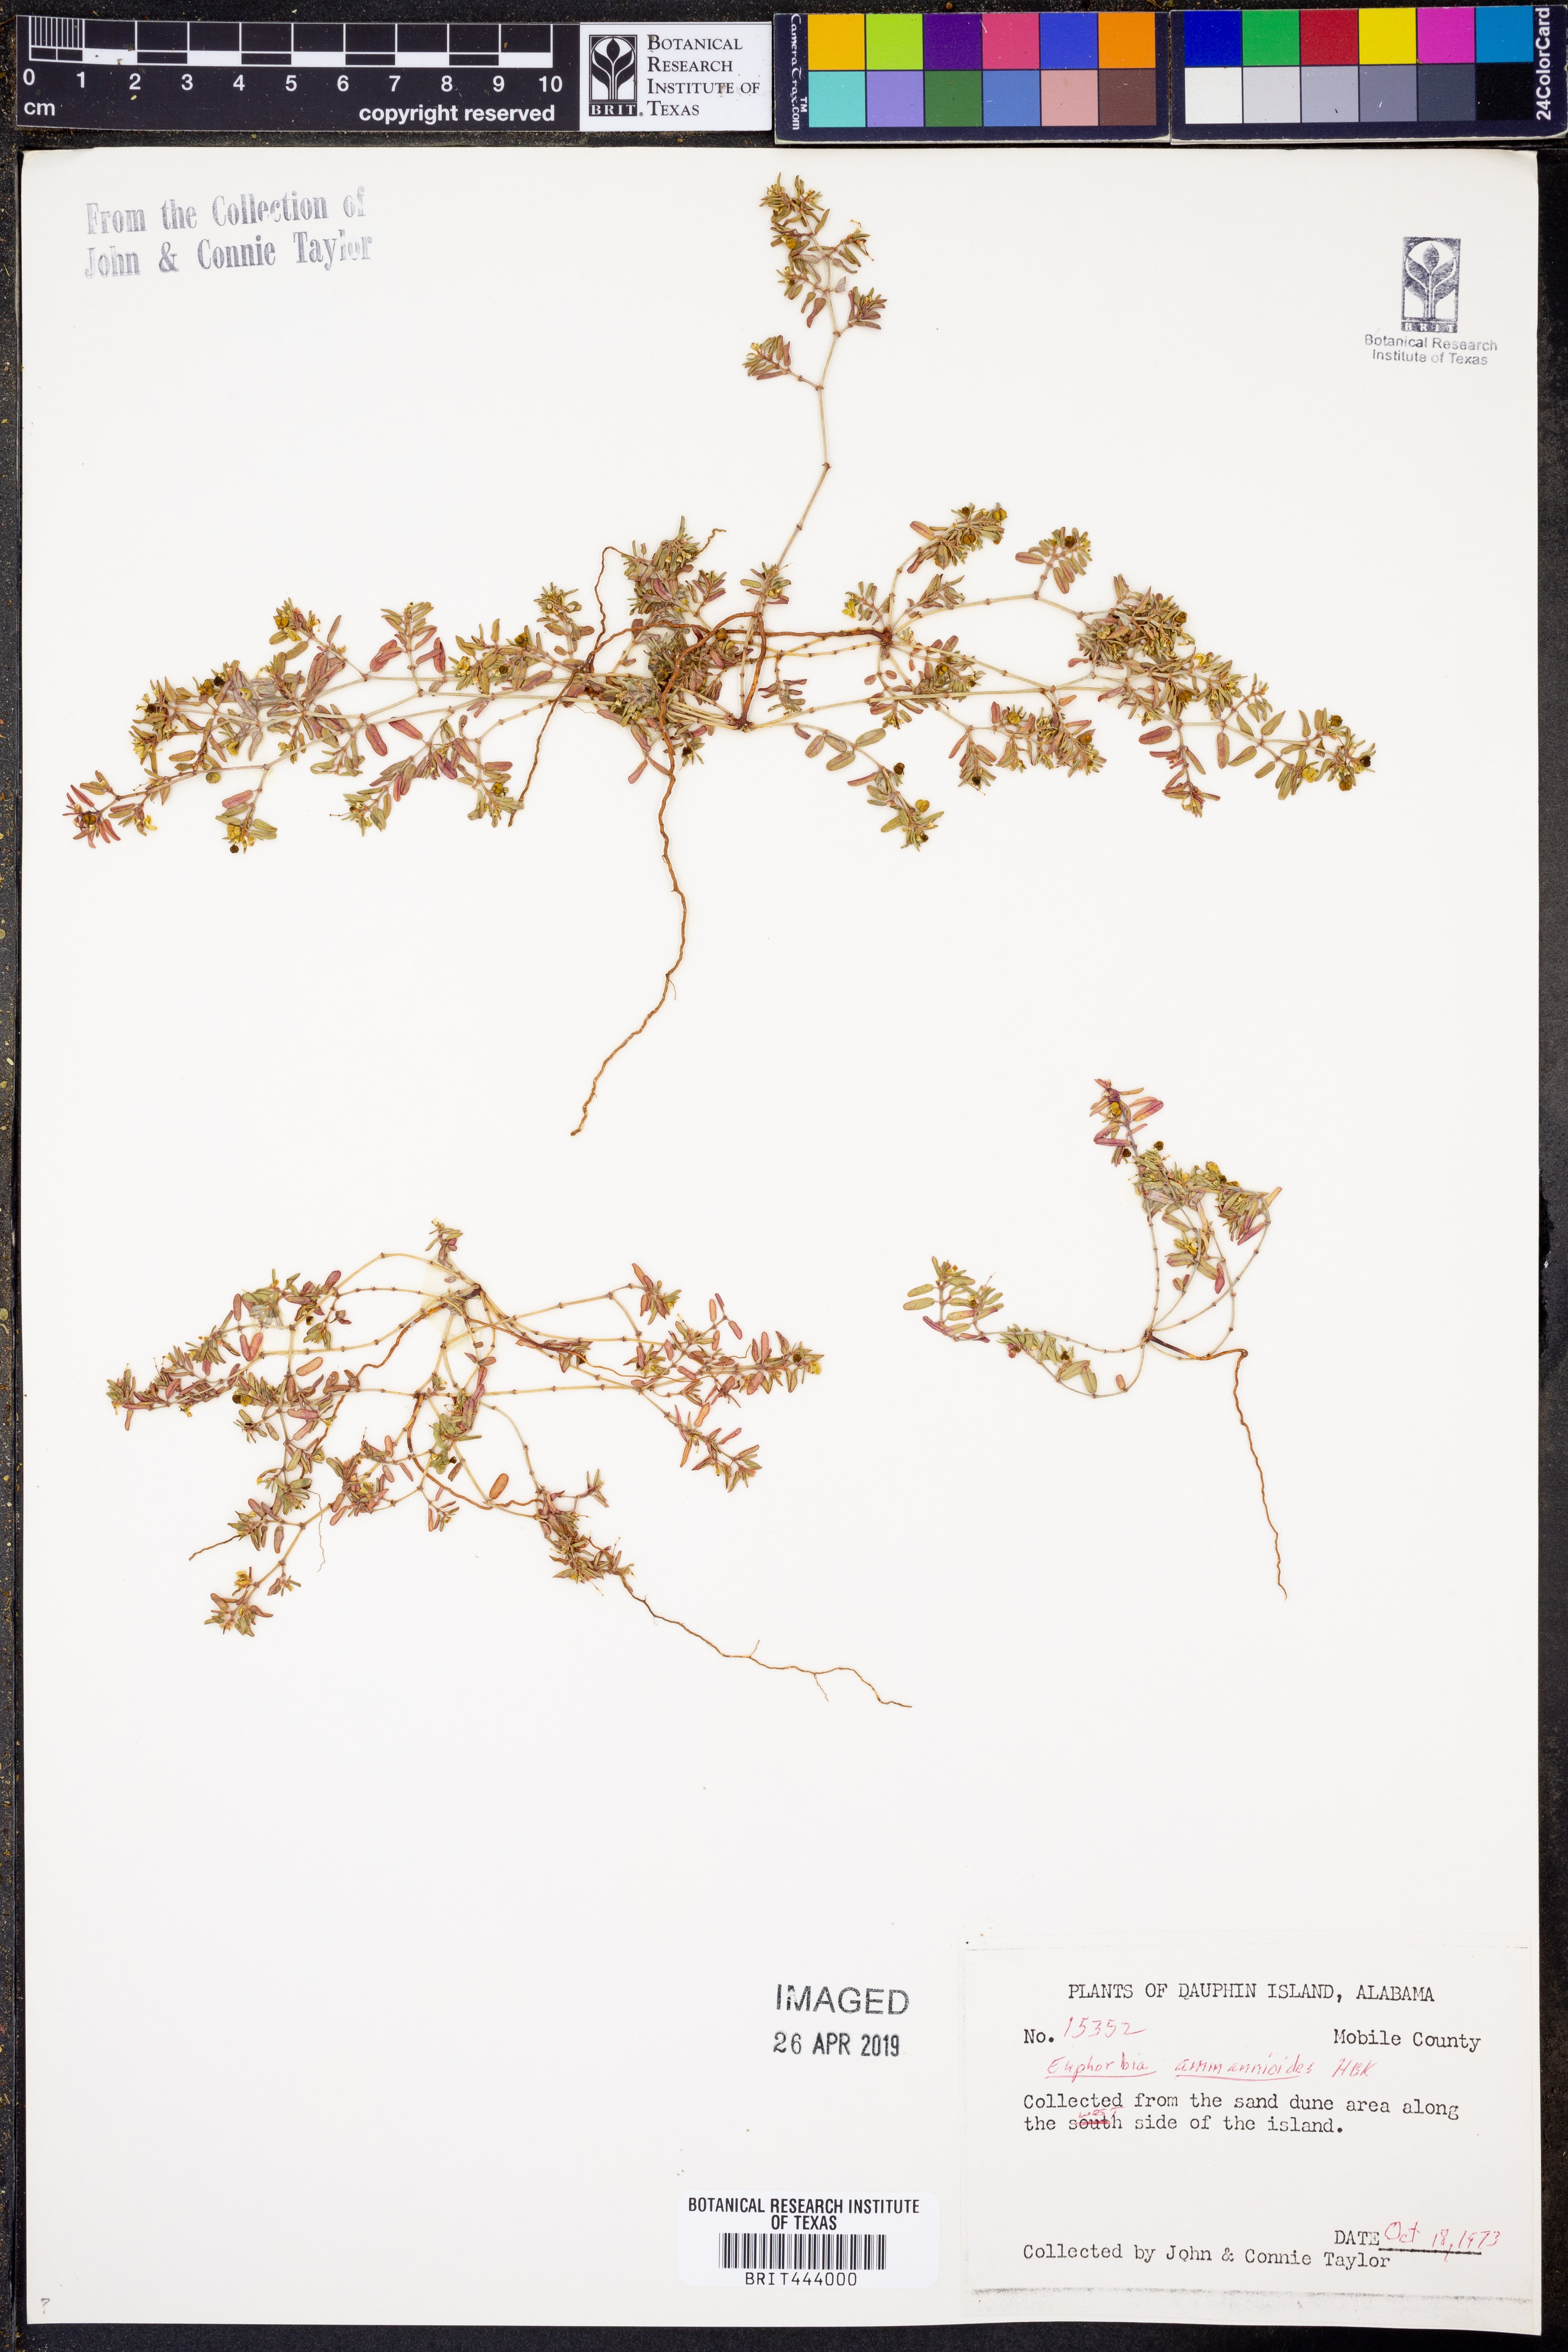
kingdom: Plantae
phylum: Tracheophyta
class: Magnoliopsida
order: Malpighiales
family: Euphorbiaceae
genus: Euphorbia
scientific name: Euphorbia bombensis
